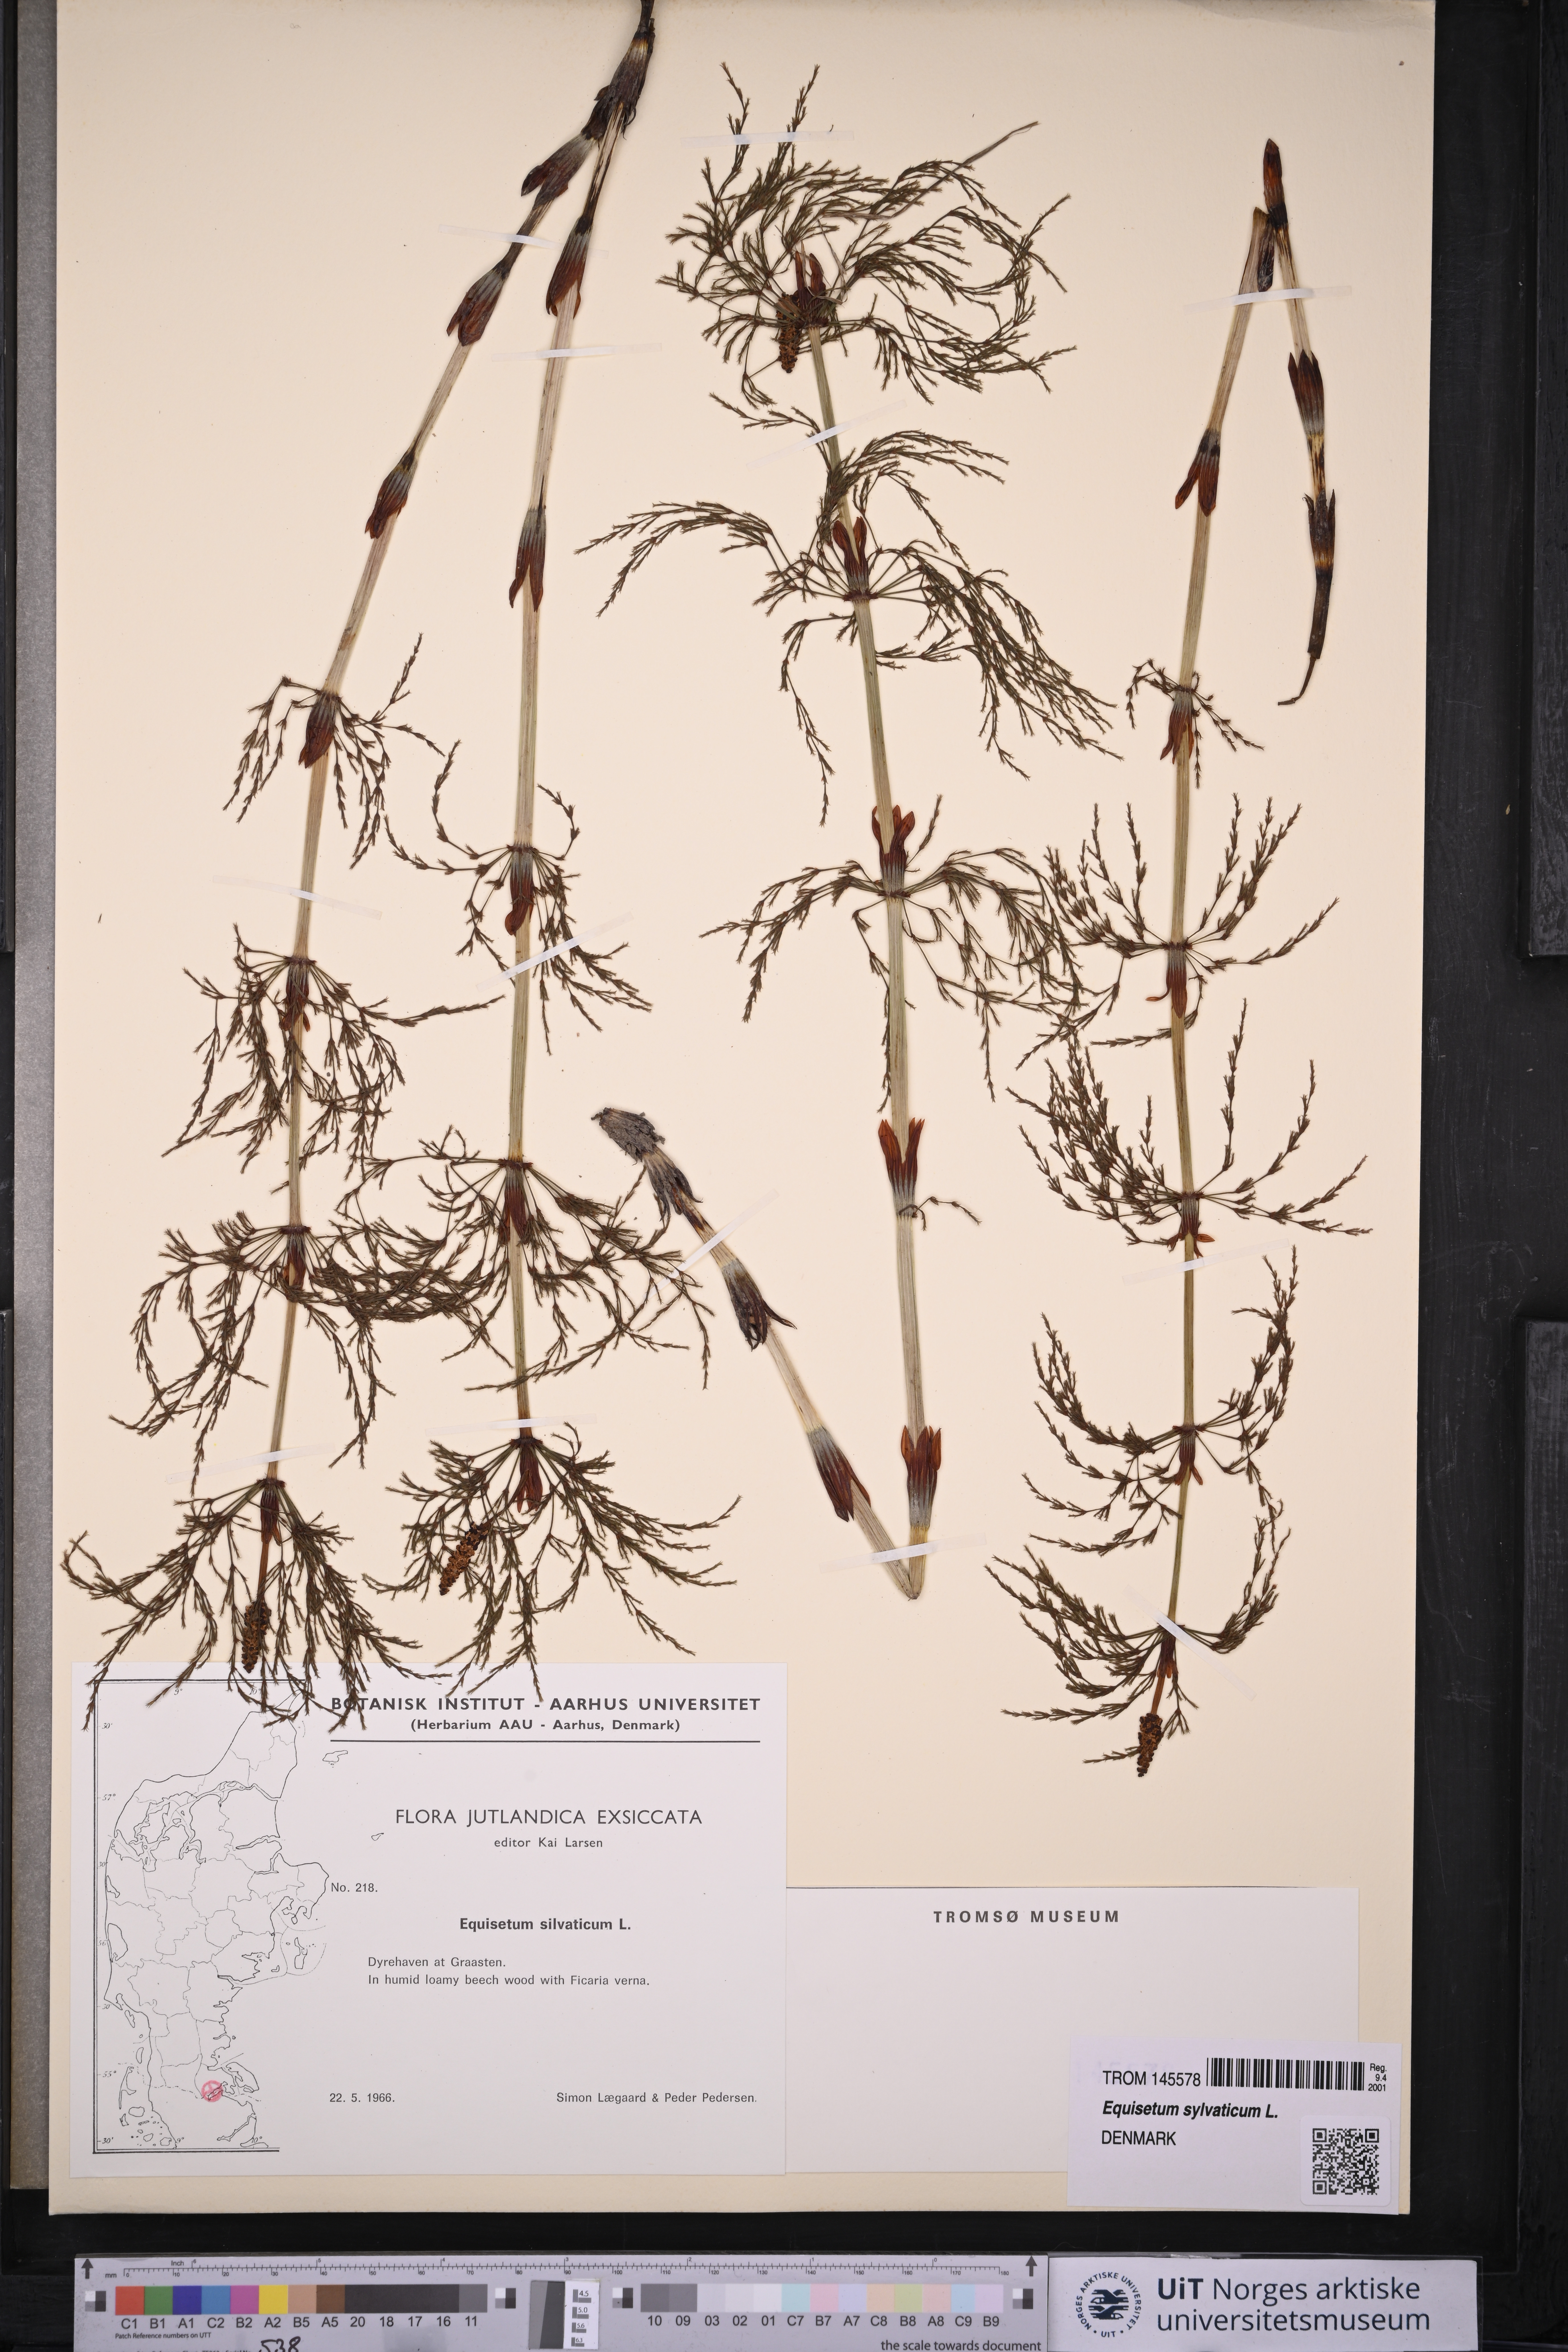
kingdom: Plantae
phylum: Tracheophyta
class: Polypodiopsida
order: Equisetales
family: Equisetaceae
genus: Equisetum
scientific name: Equisetum sylvaticum
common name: Wood horsetail
